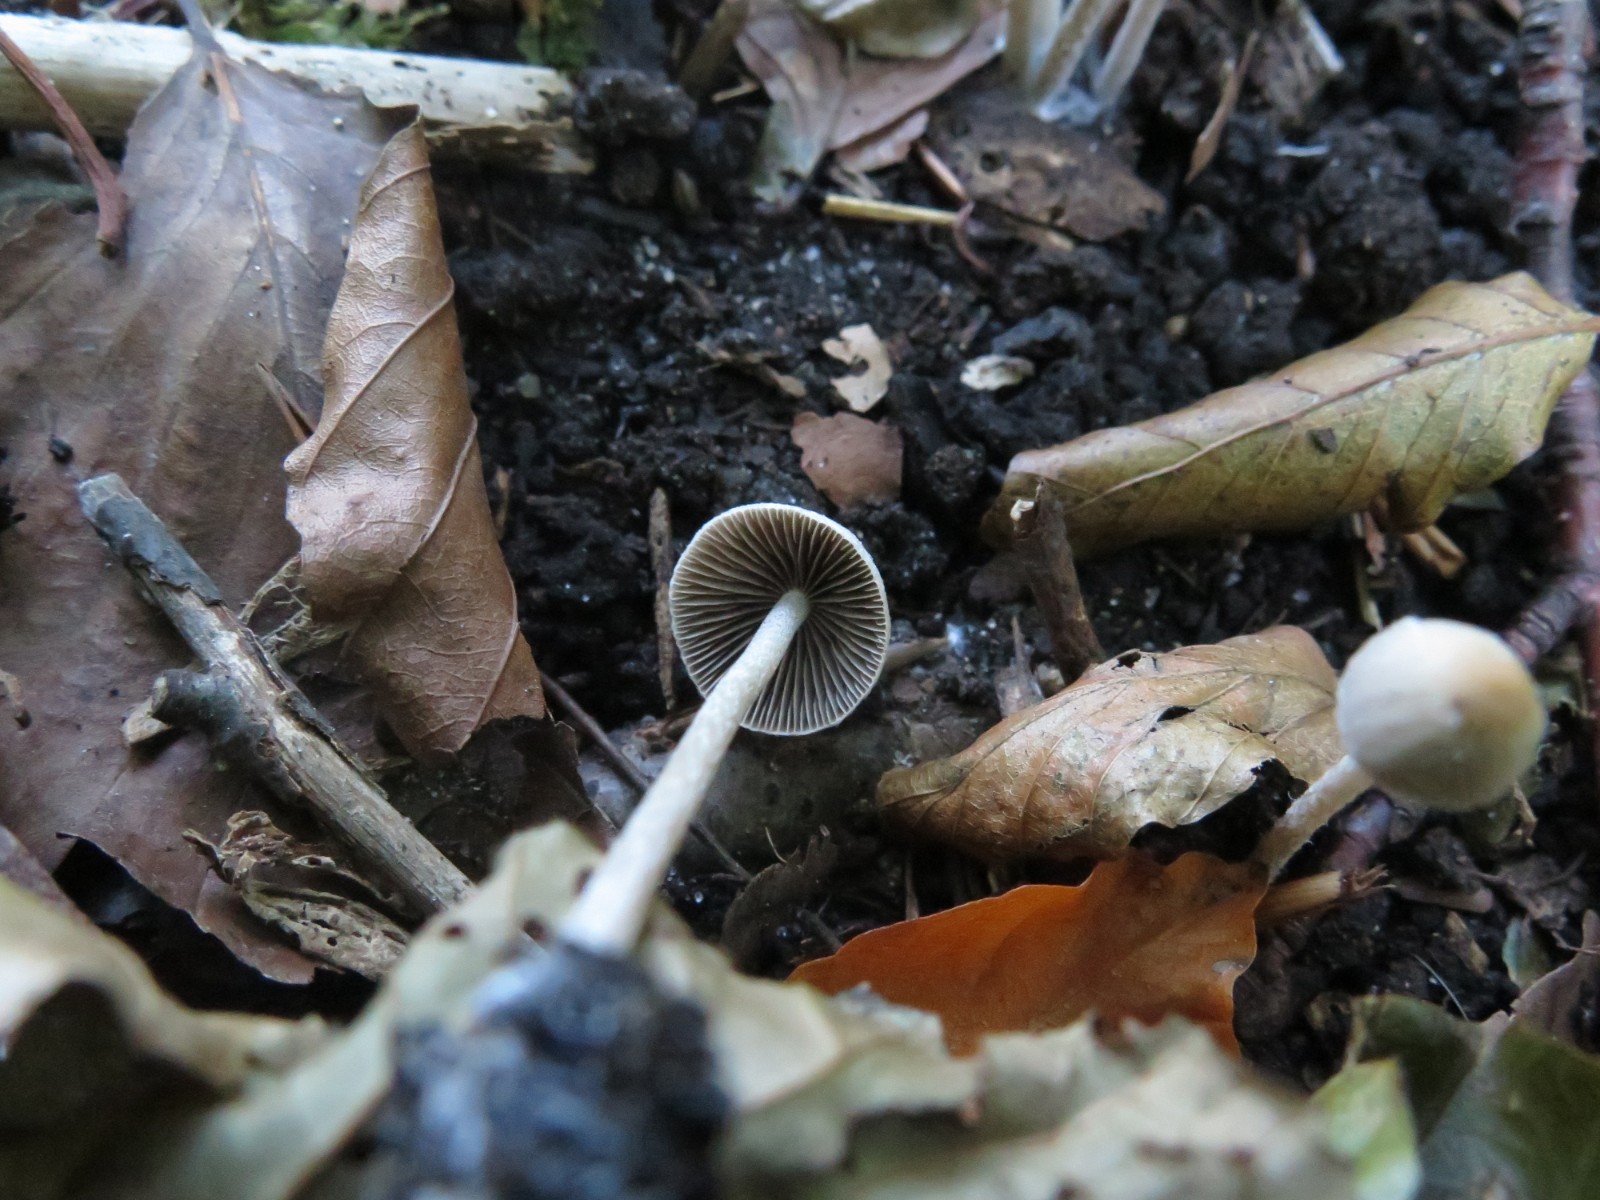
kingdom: Fungi
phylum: Basidiomycota
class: Agaricomycetes
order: Agaricales
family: Psathyrellaceae
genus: Psathyrella
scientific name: Psathyrella
